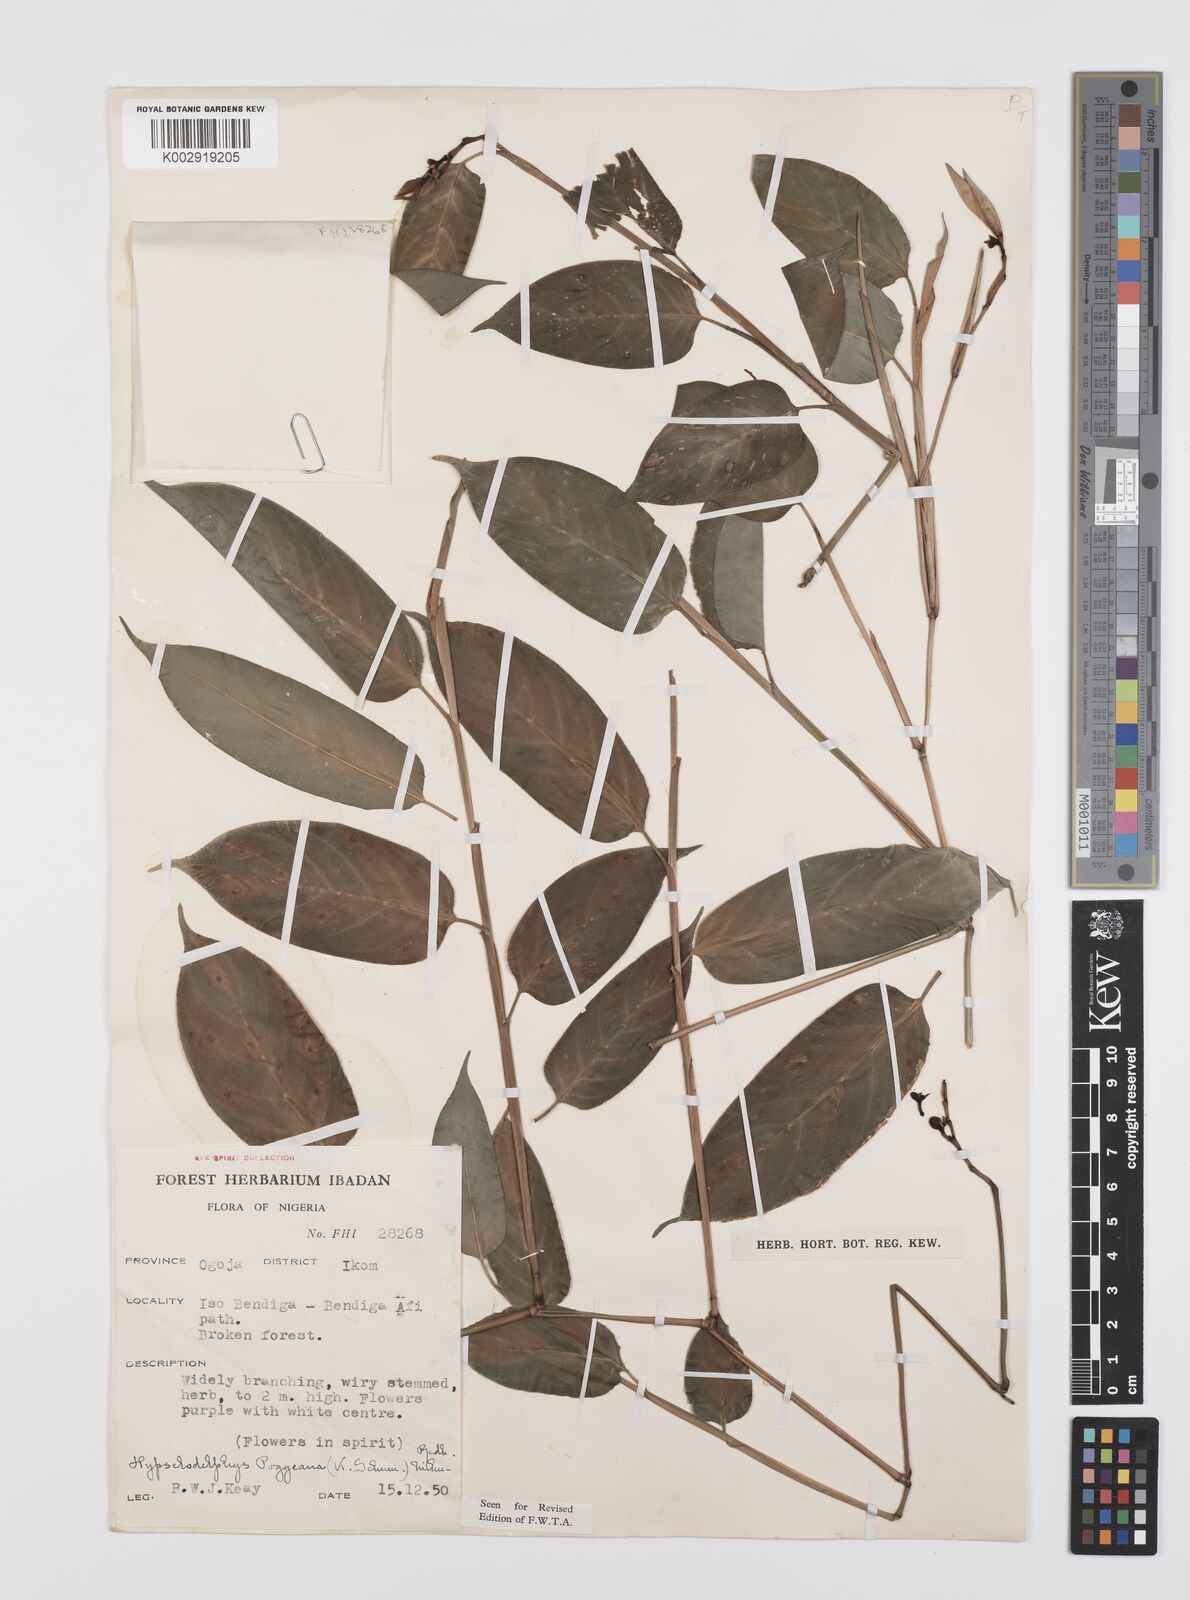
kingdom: Plantae
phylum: Tracheophyta
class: Liliopsida
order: Zingiberales
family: Marantaceae
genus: Hypselodelphys
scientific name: Hypselodelphys poggeana
